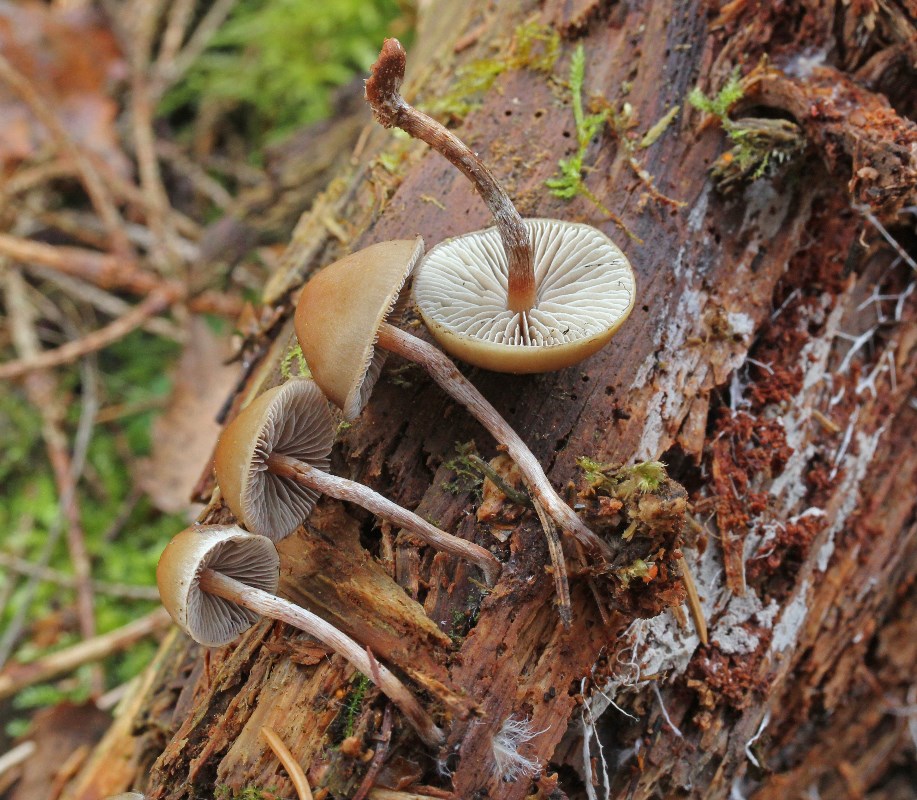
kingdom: Fungi
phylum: Basidiomycota
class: Agaricomycetes
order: Agaricales
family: Strophariaceae
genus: Hypholoma
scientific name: Hypholoma marginatum
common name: enlig svovlhat
